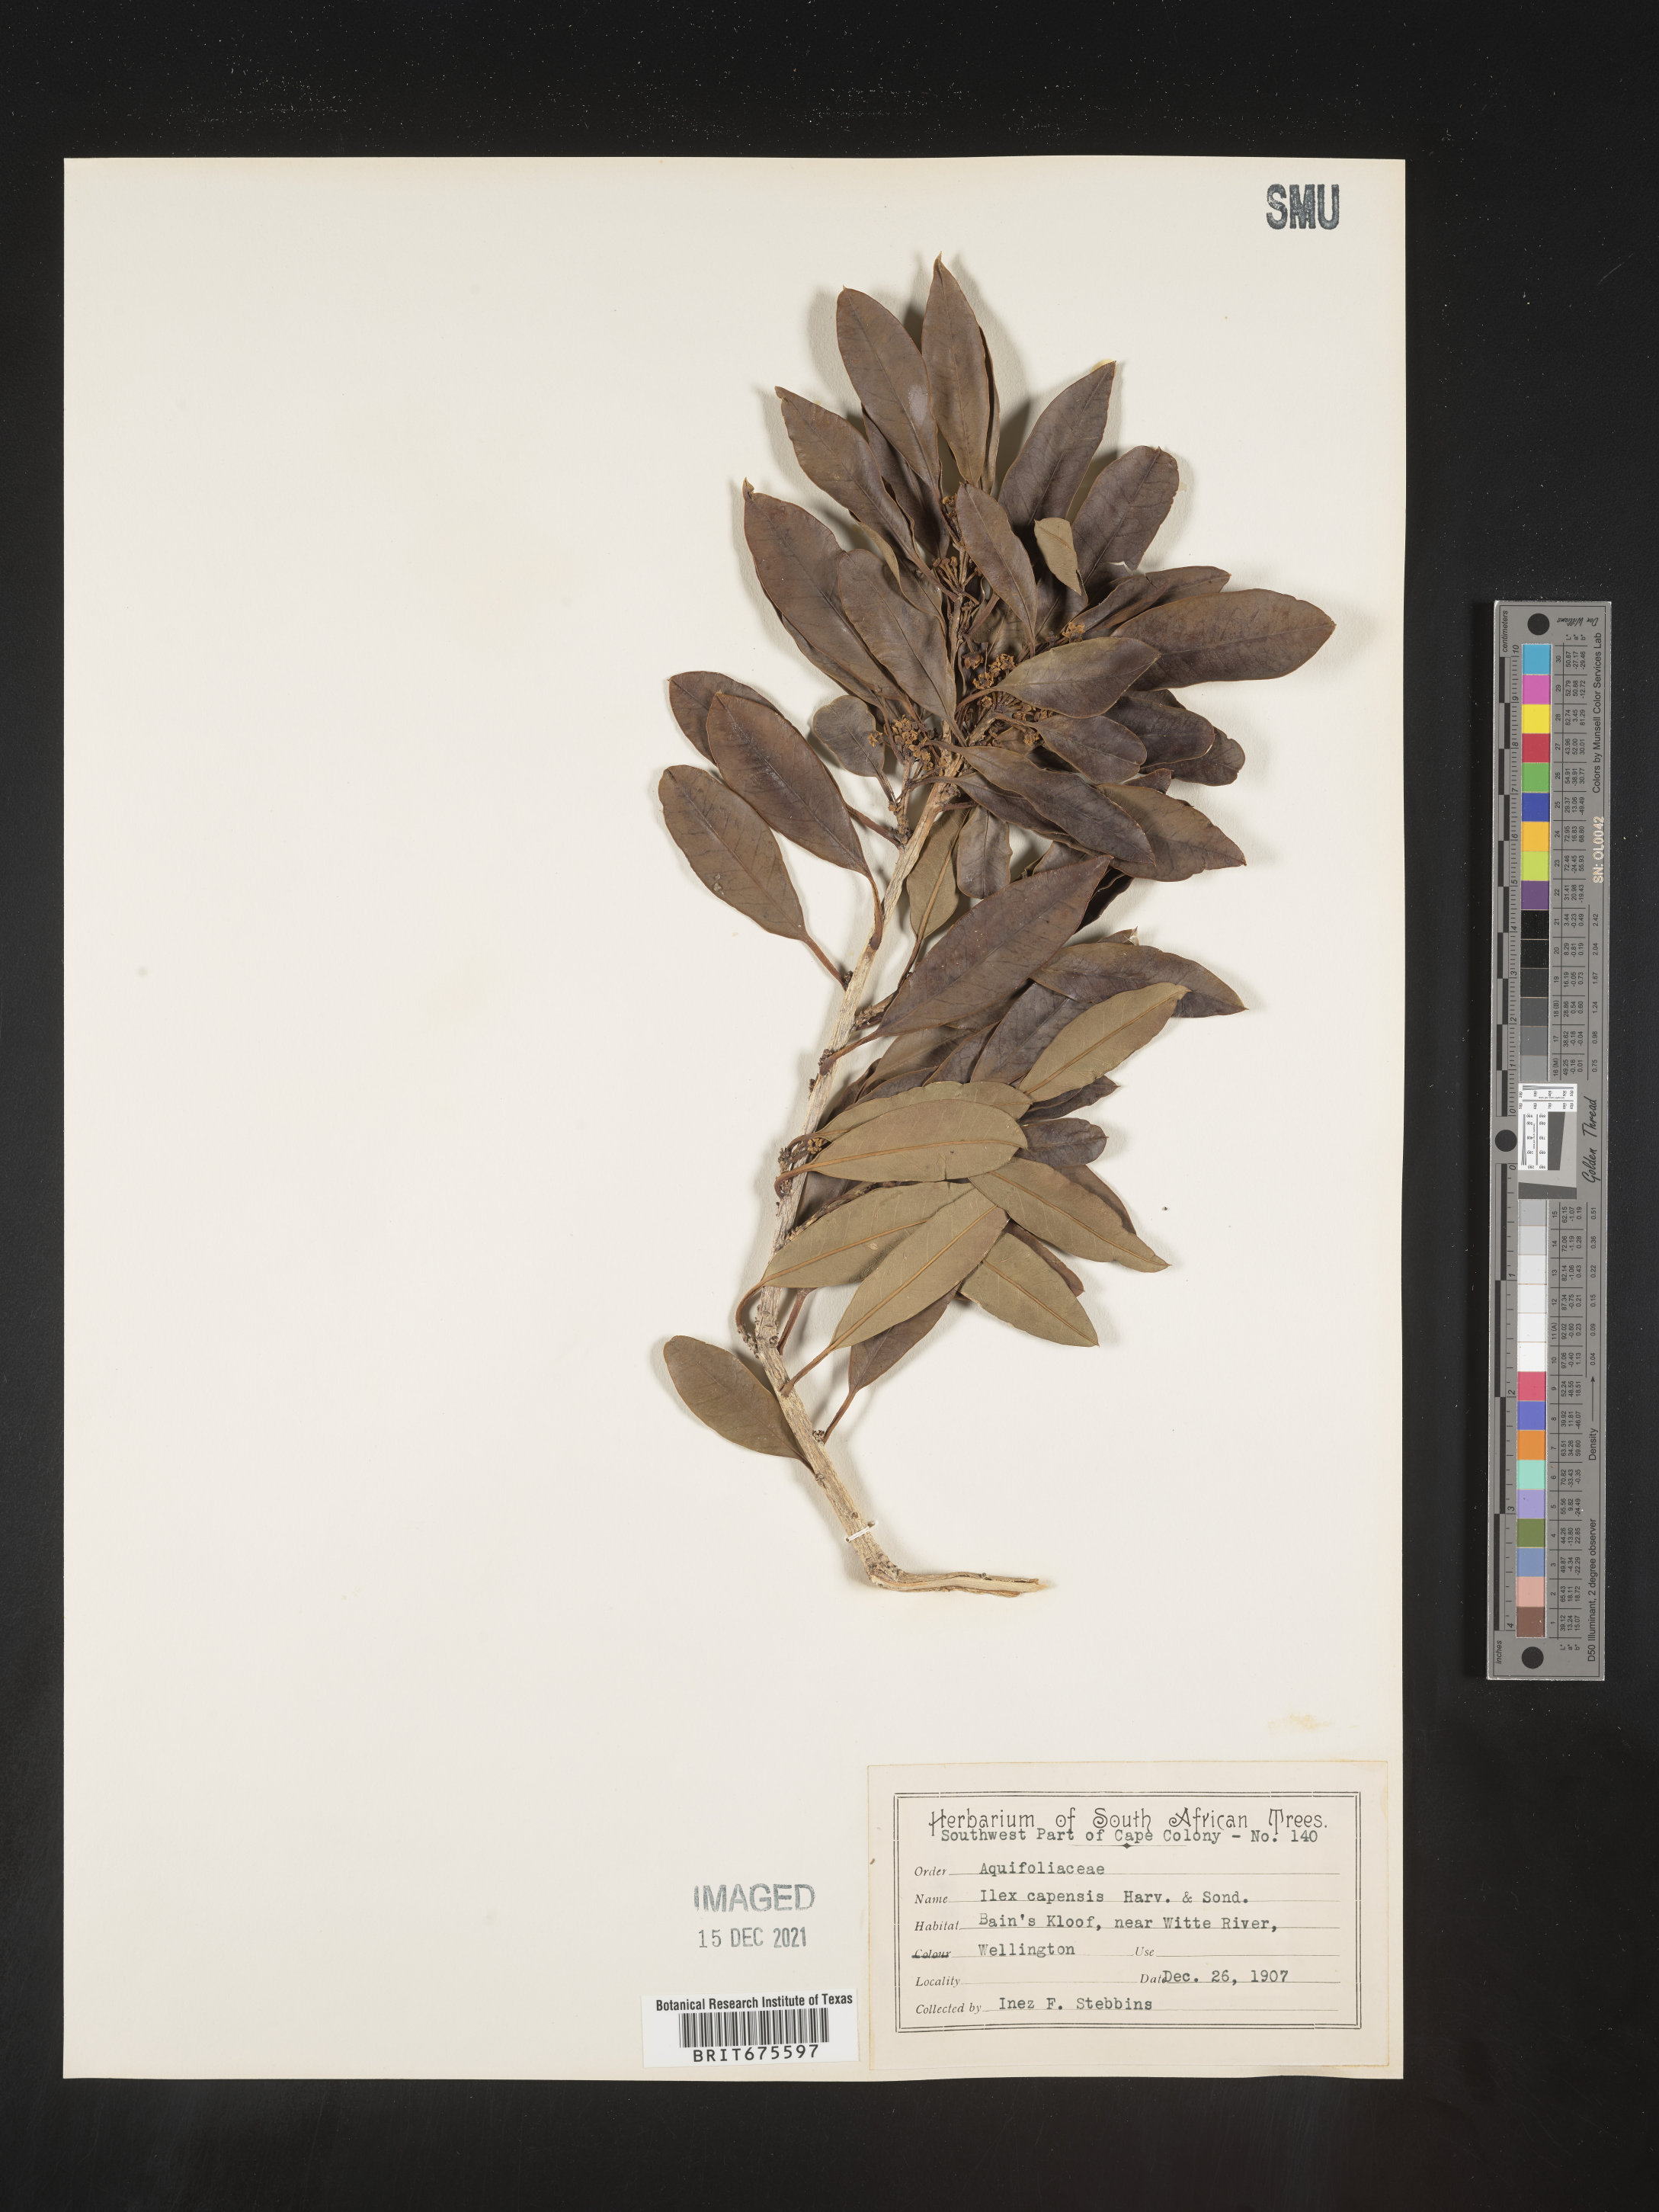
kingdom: Plantae
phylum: Tracheophyta
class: Magnoliopsida
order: Aquifoliales
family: Aquifoliaceae
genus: Ilex
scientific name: Ilex
